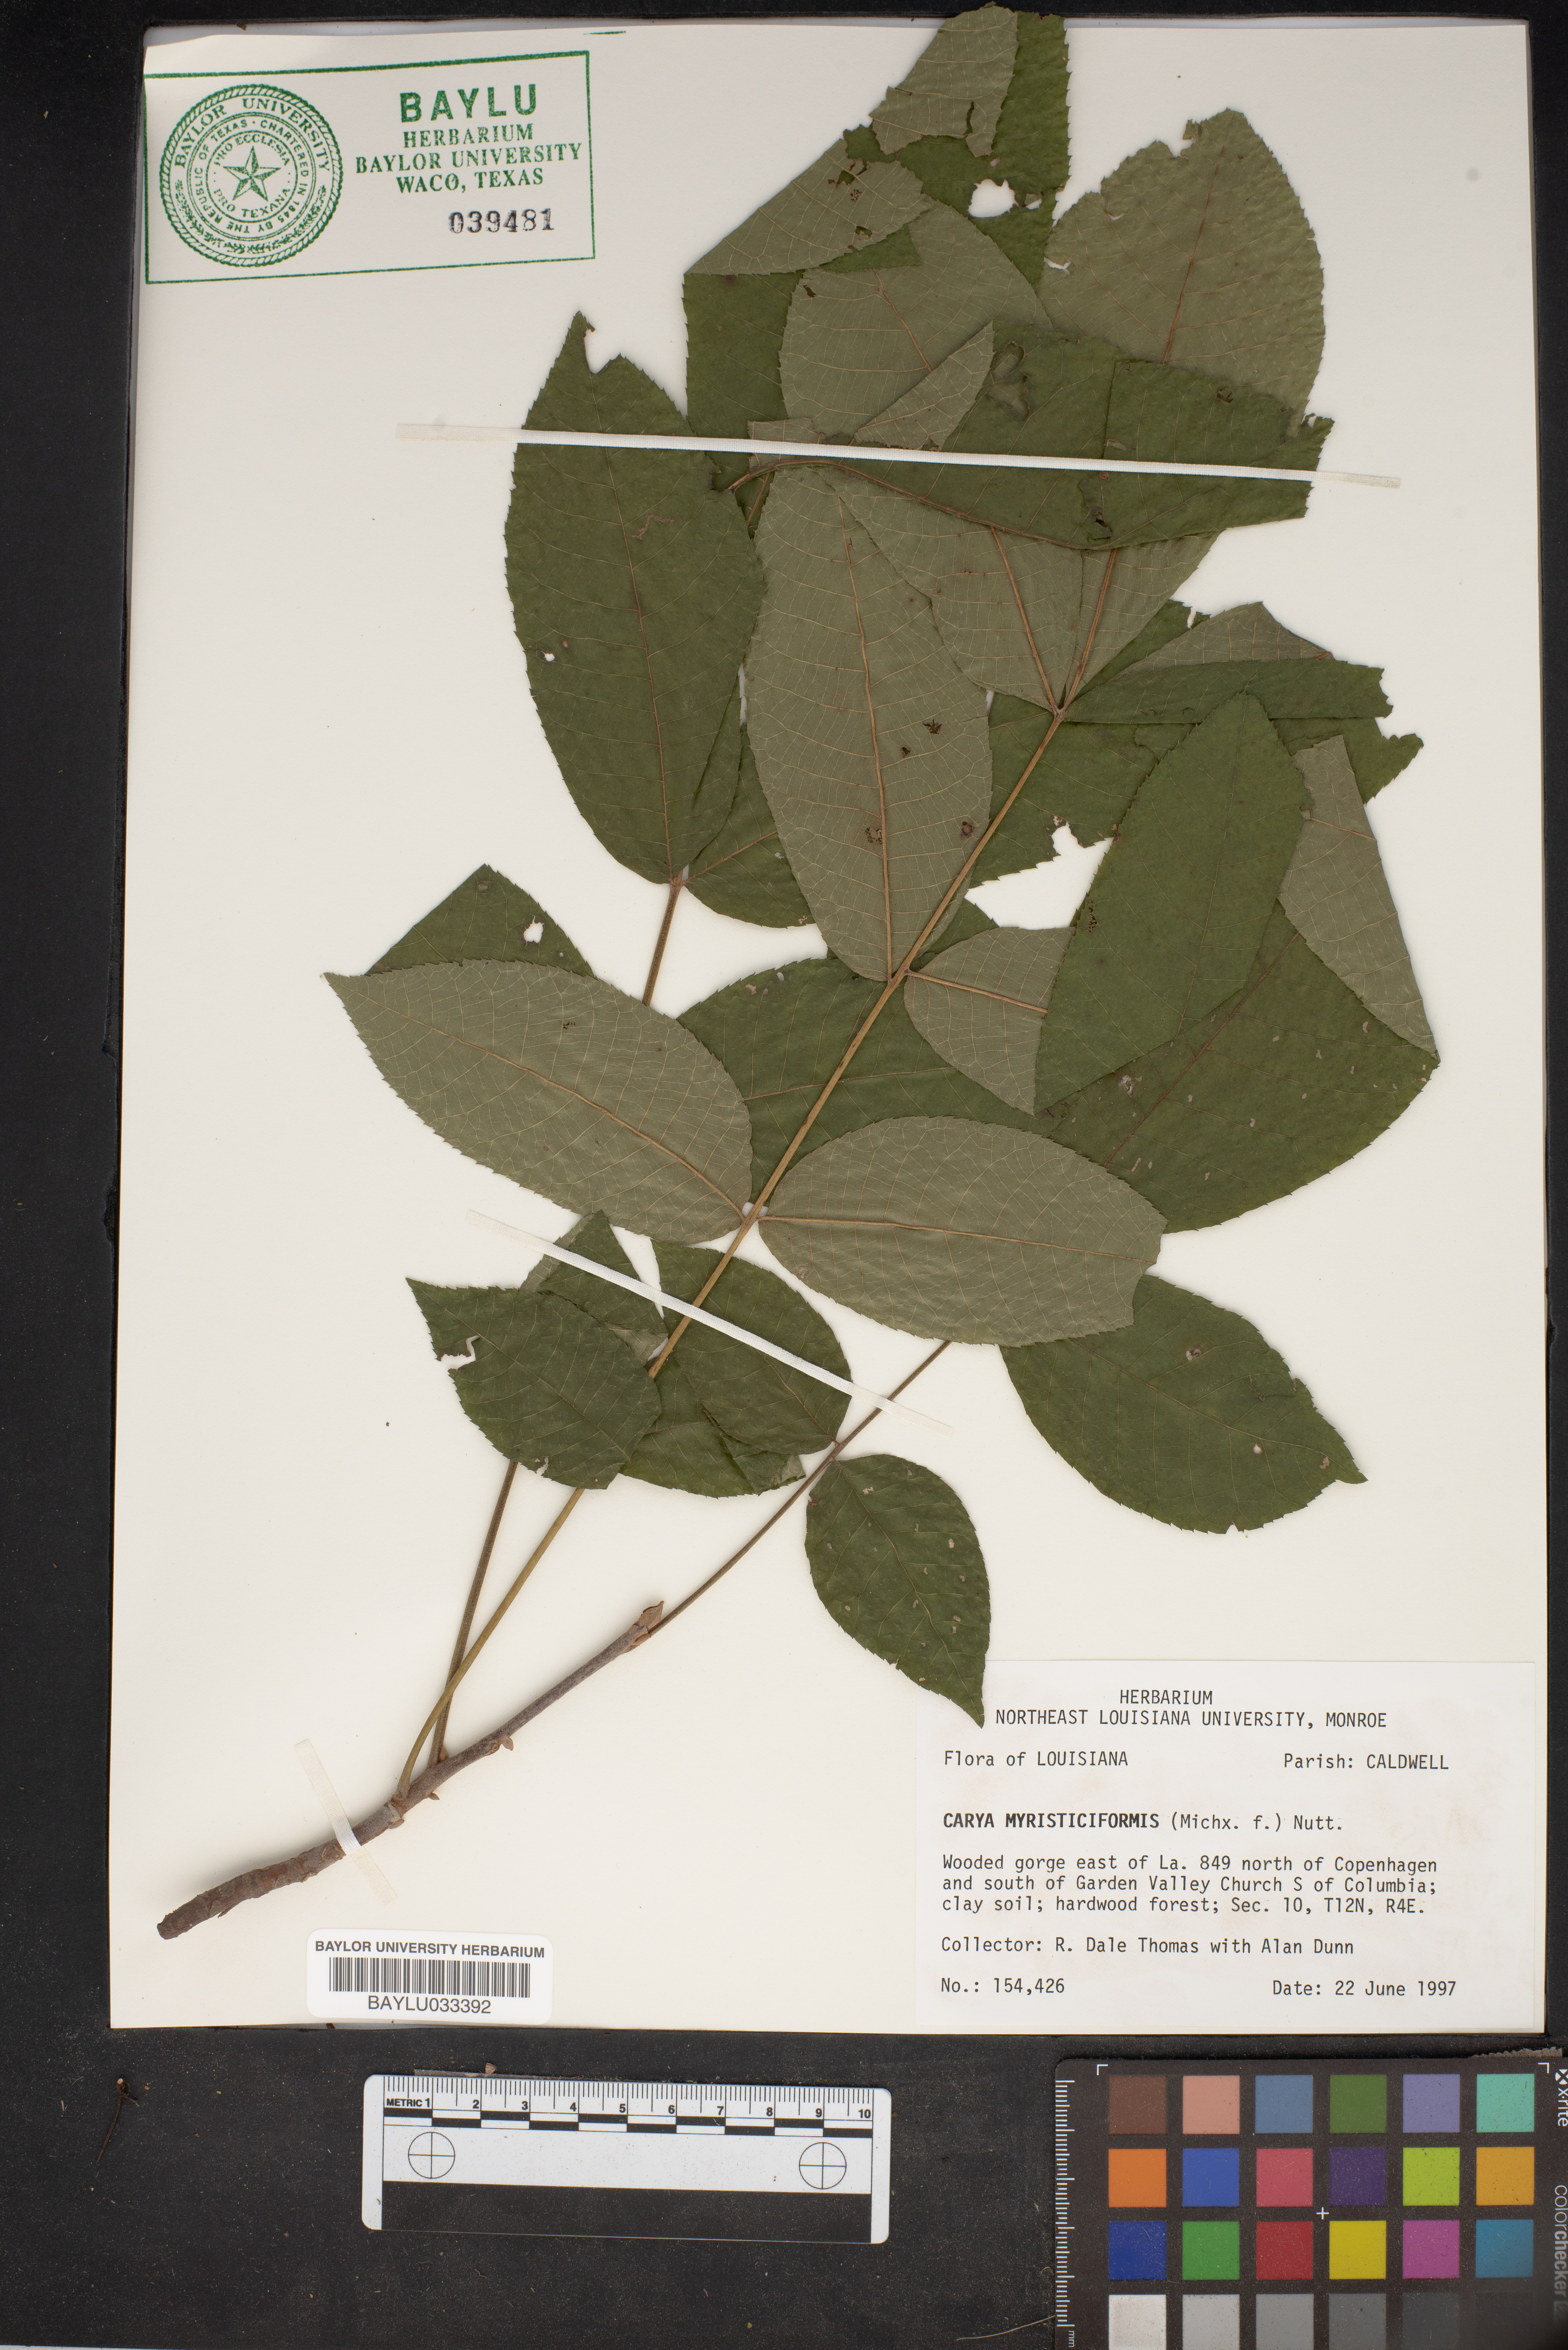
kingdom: Plantae
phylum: Tracheophyta
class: Magnoliopsida
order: Fagales
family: Juglandaceae
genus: Carya
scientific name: Carya myristiciformis
